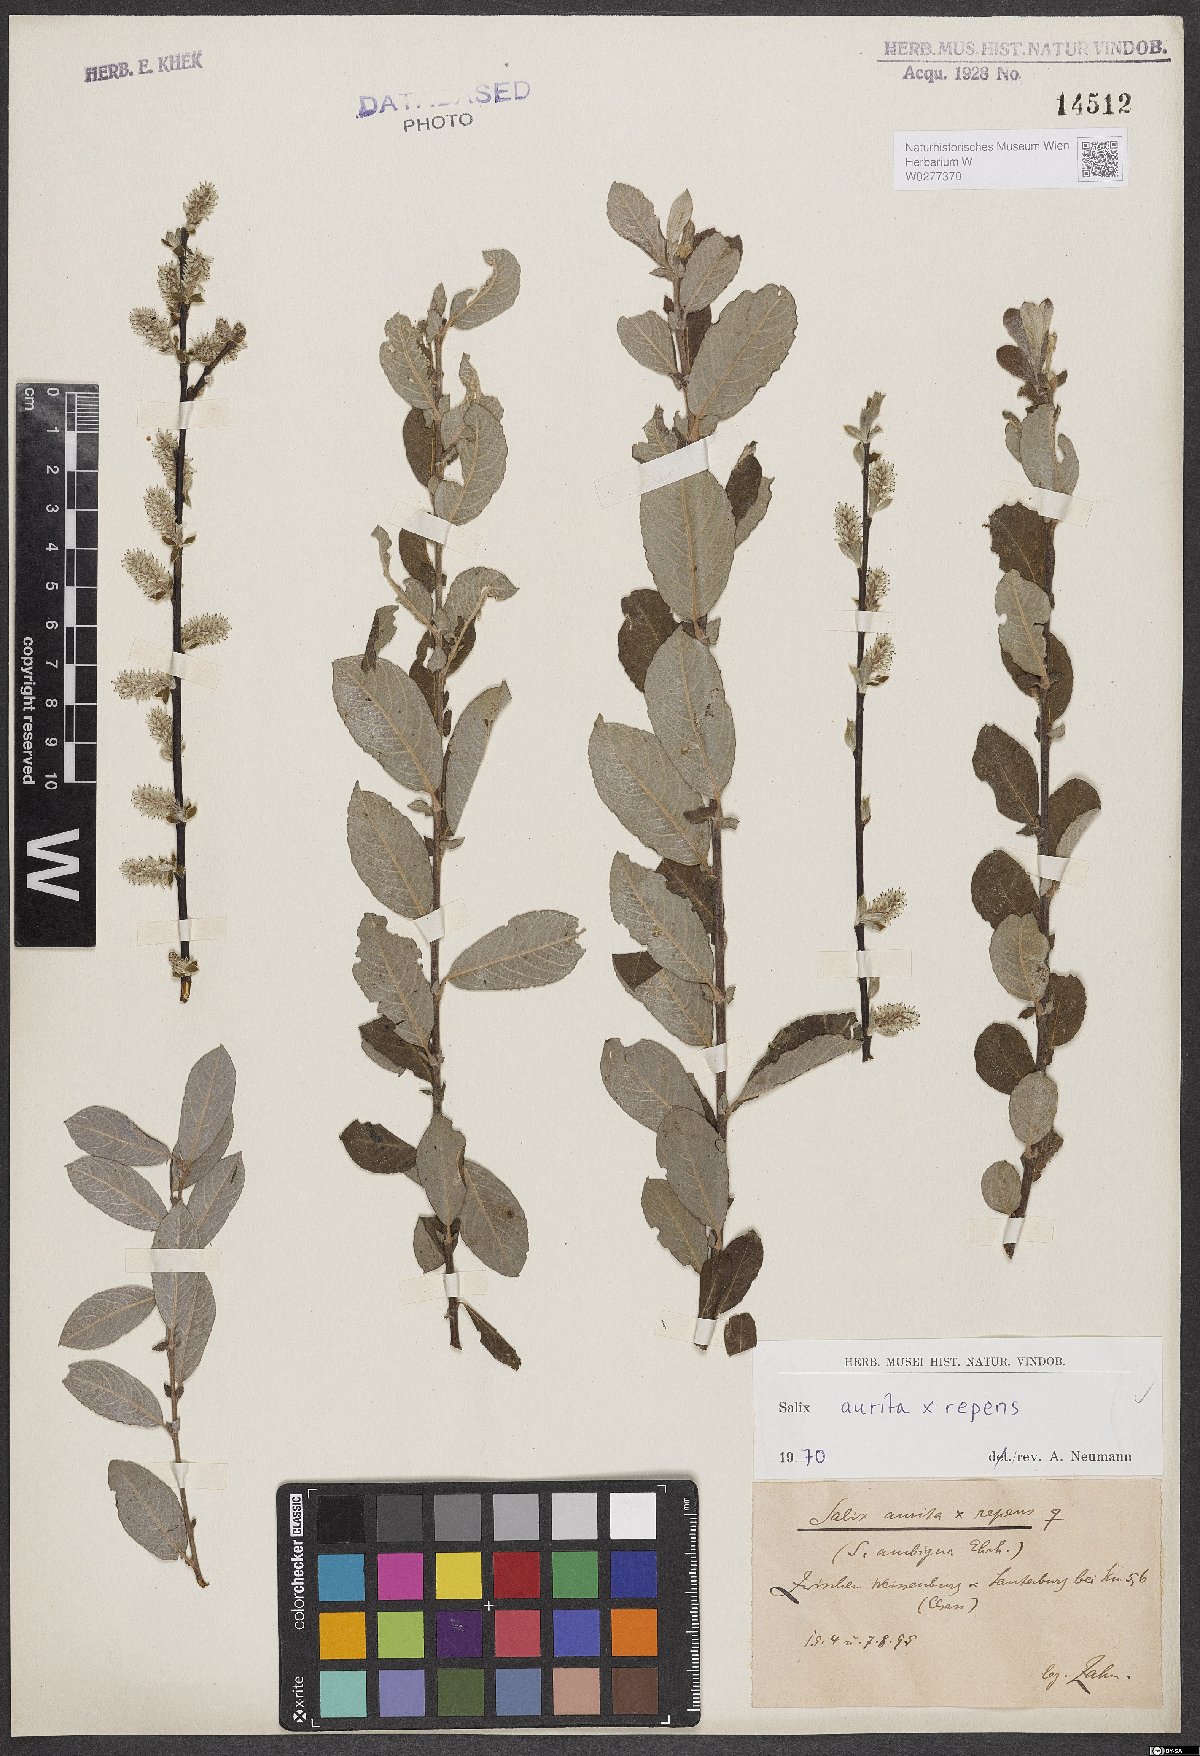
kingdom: Plantae
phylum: Tracheophyta
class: Magnoliopsida
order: Malpighiales
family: Salicaceae
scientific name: Salicaceae
